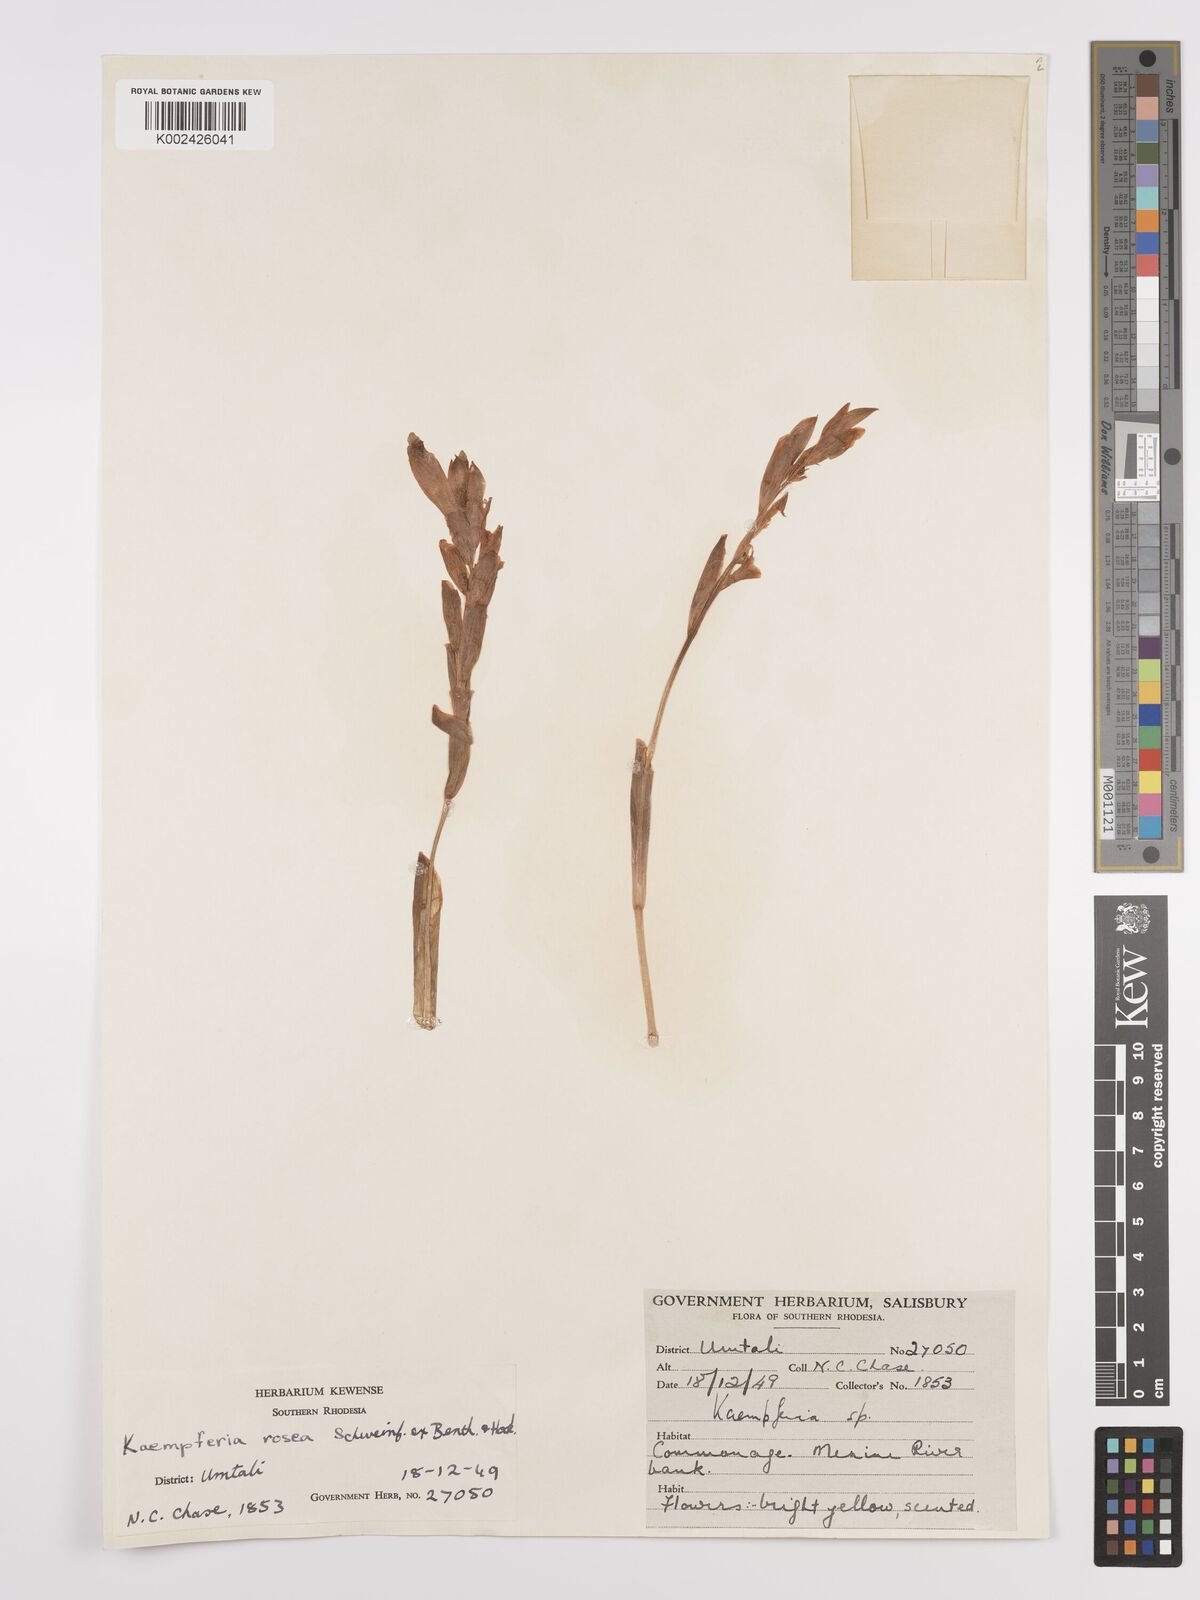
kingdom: Plantae
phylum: Tracheophyta
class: Liliopsida
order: Zingiberales
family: Zingiberaceae
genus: Siphonochilus
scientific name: Siphonochilus kirkii
